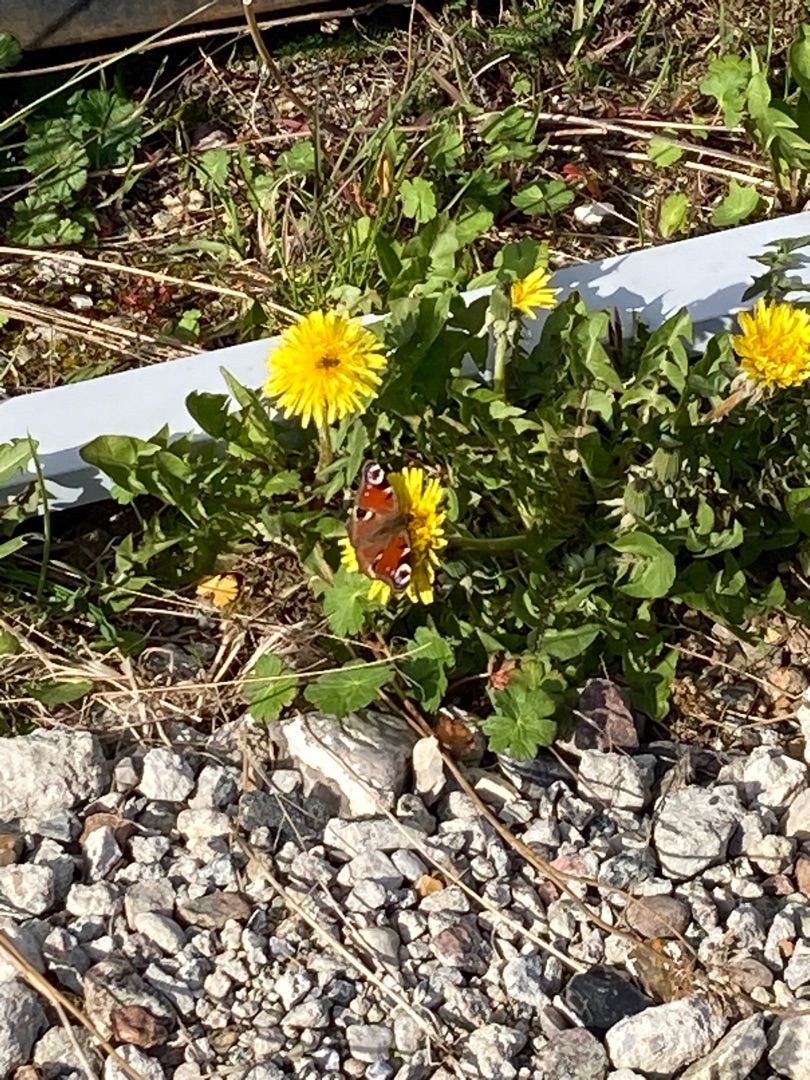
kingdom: Animalia
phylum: Arthropoda
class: Insecta
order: Lepidoptera
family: Nymphalidae
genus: Aglais
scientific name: Aglais io
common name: Dagpåfugleøje
